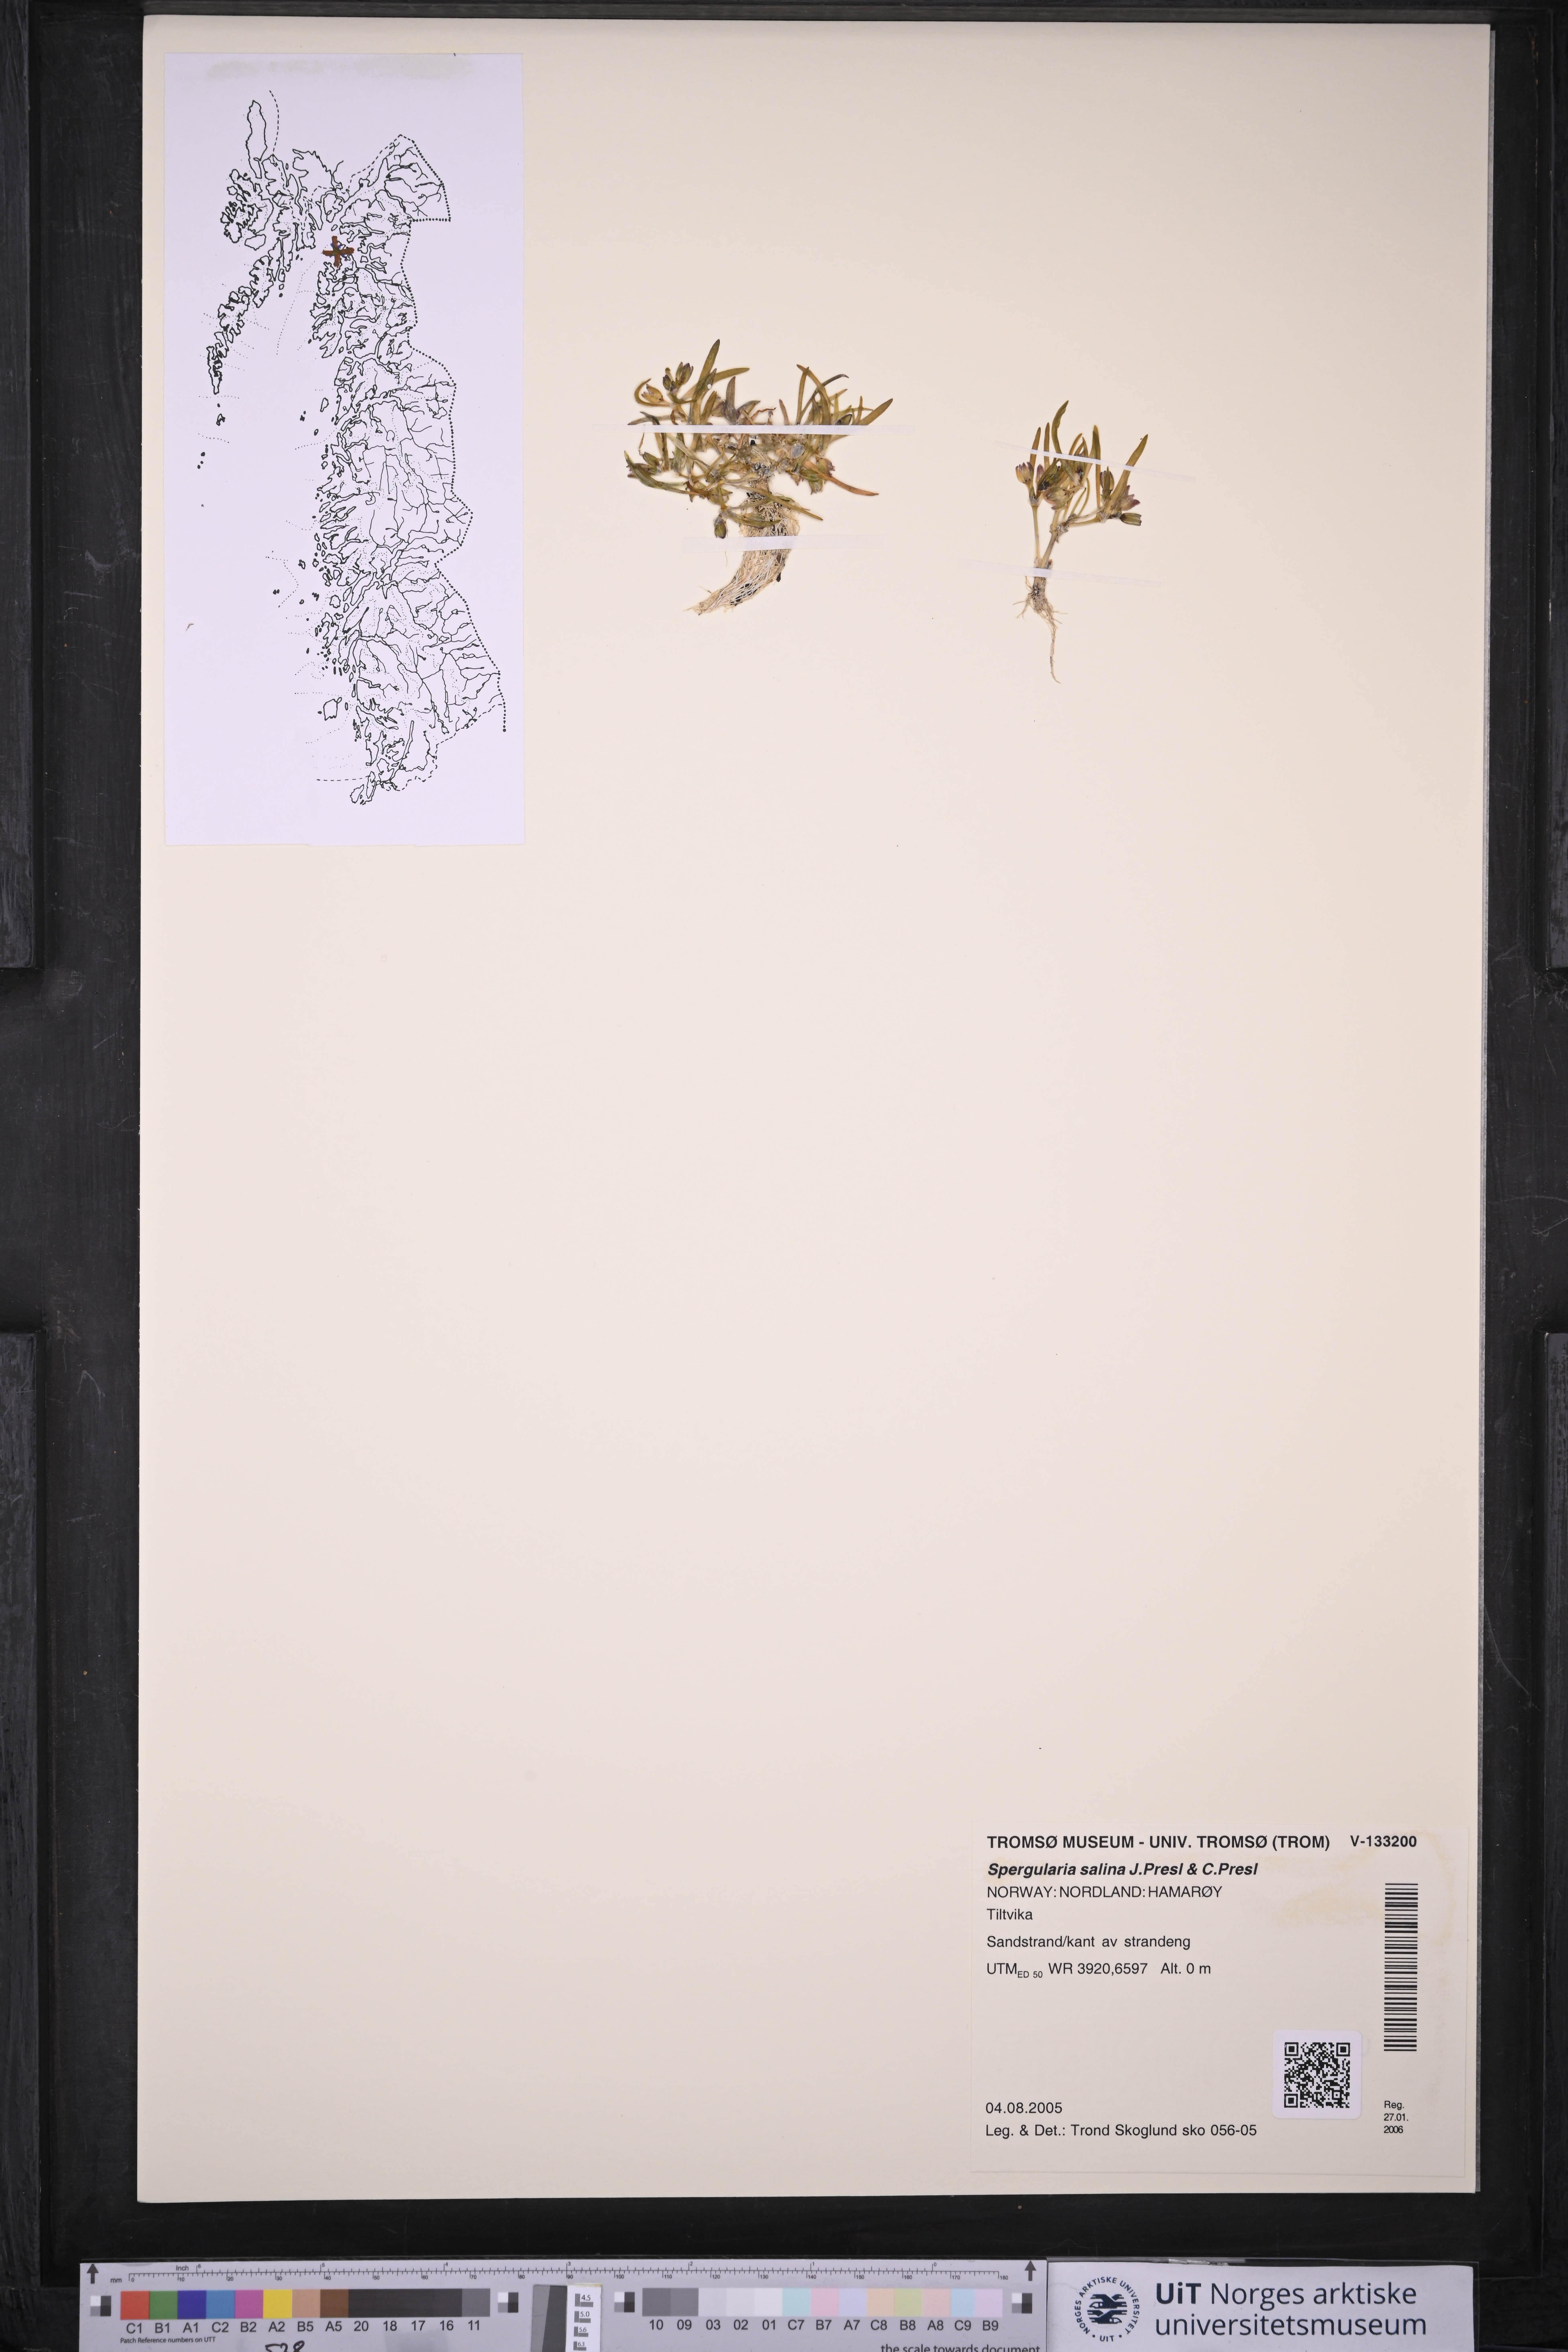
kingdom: Plantae
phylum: Tracheophyta
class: Magnoliopsida
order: Caryophyllales
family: Caryophyllaceae
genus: Spergularia
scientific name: Spergularia marina
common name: Lesser sea-spurrey
